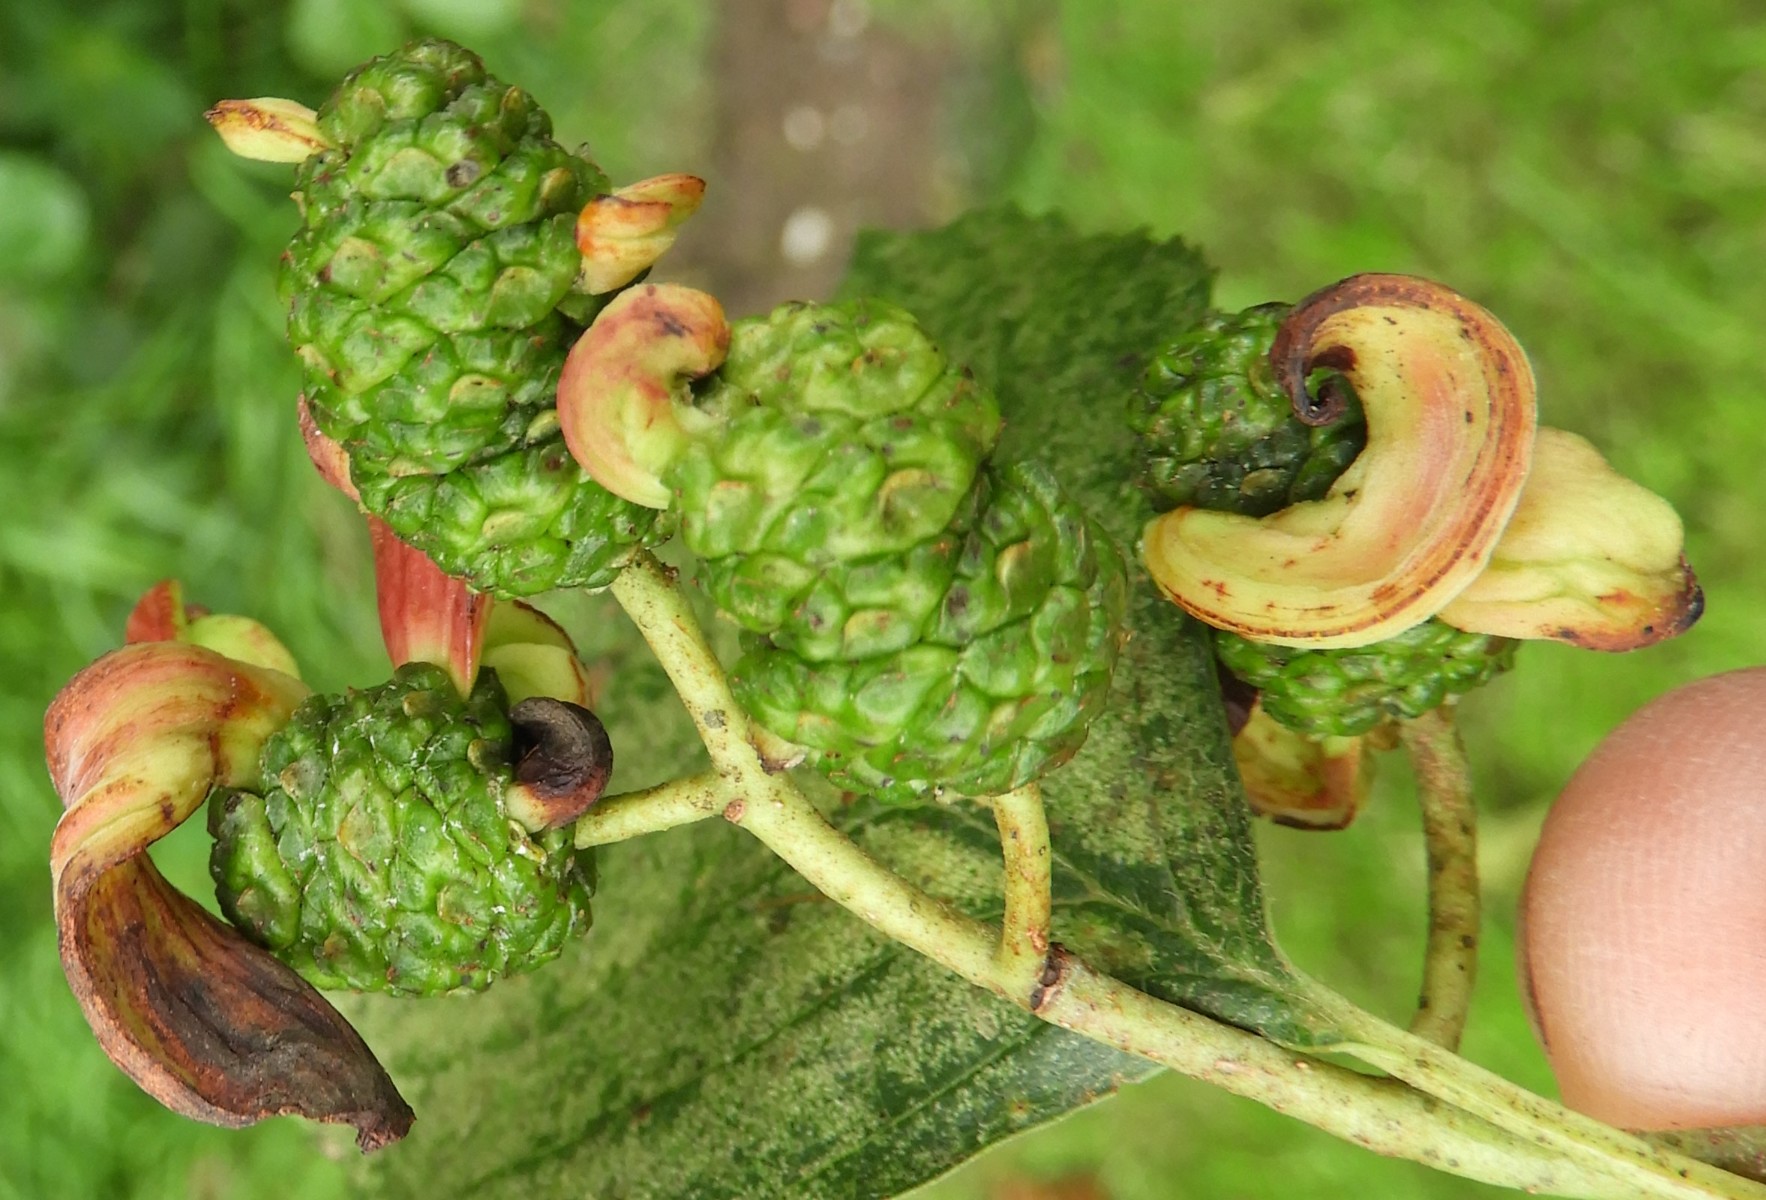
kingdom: Fungi
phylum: Ascomycota
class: Taphrinomycetes
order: Taphrinales
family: Taphrinaceae
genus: Taphrina
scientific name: Taphrina alni
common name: Alder tongue
